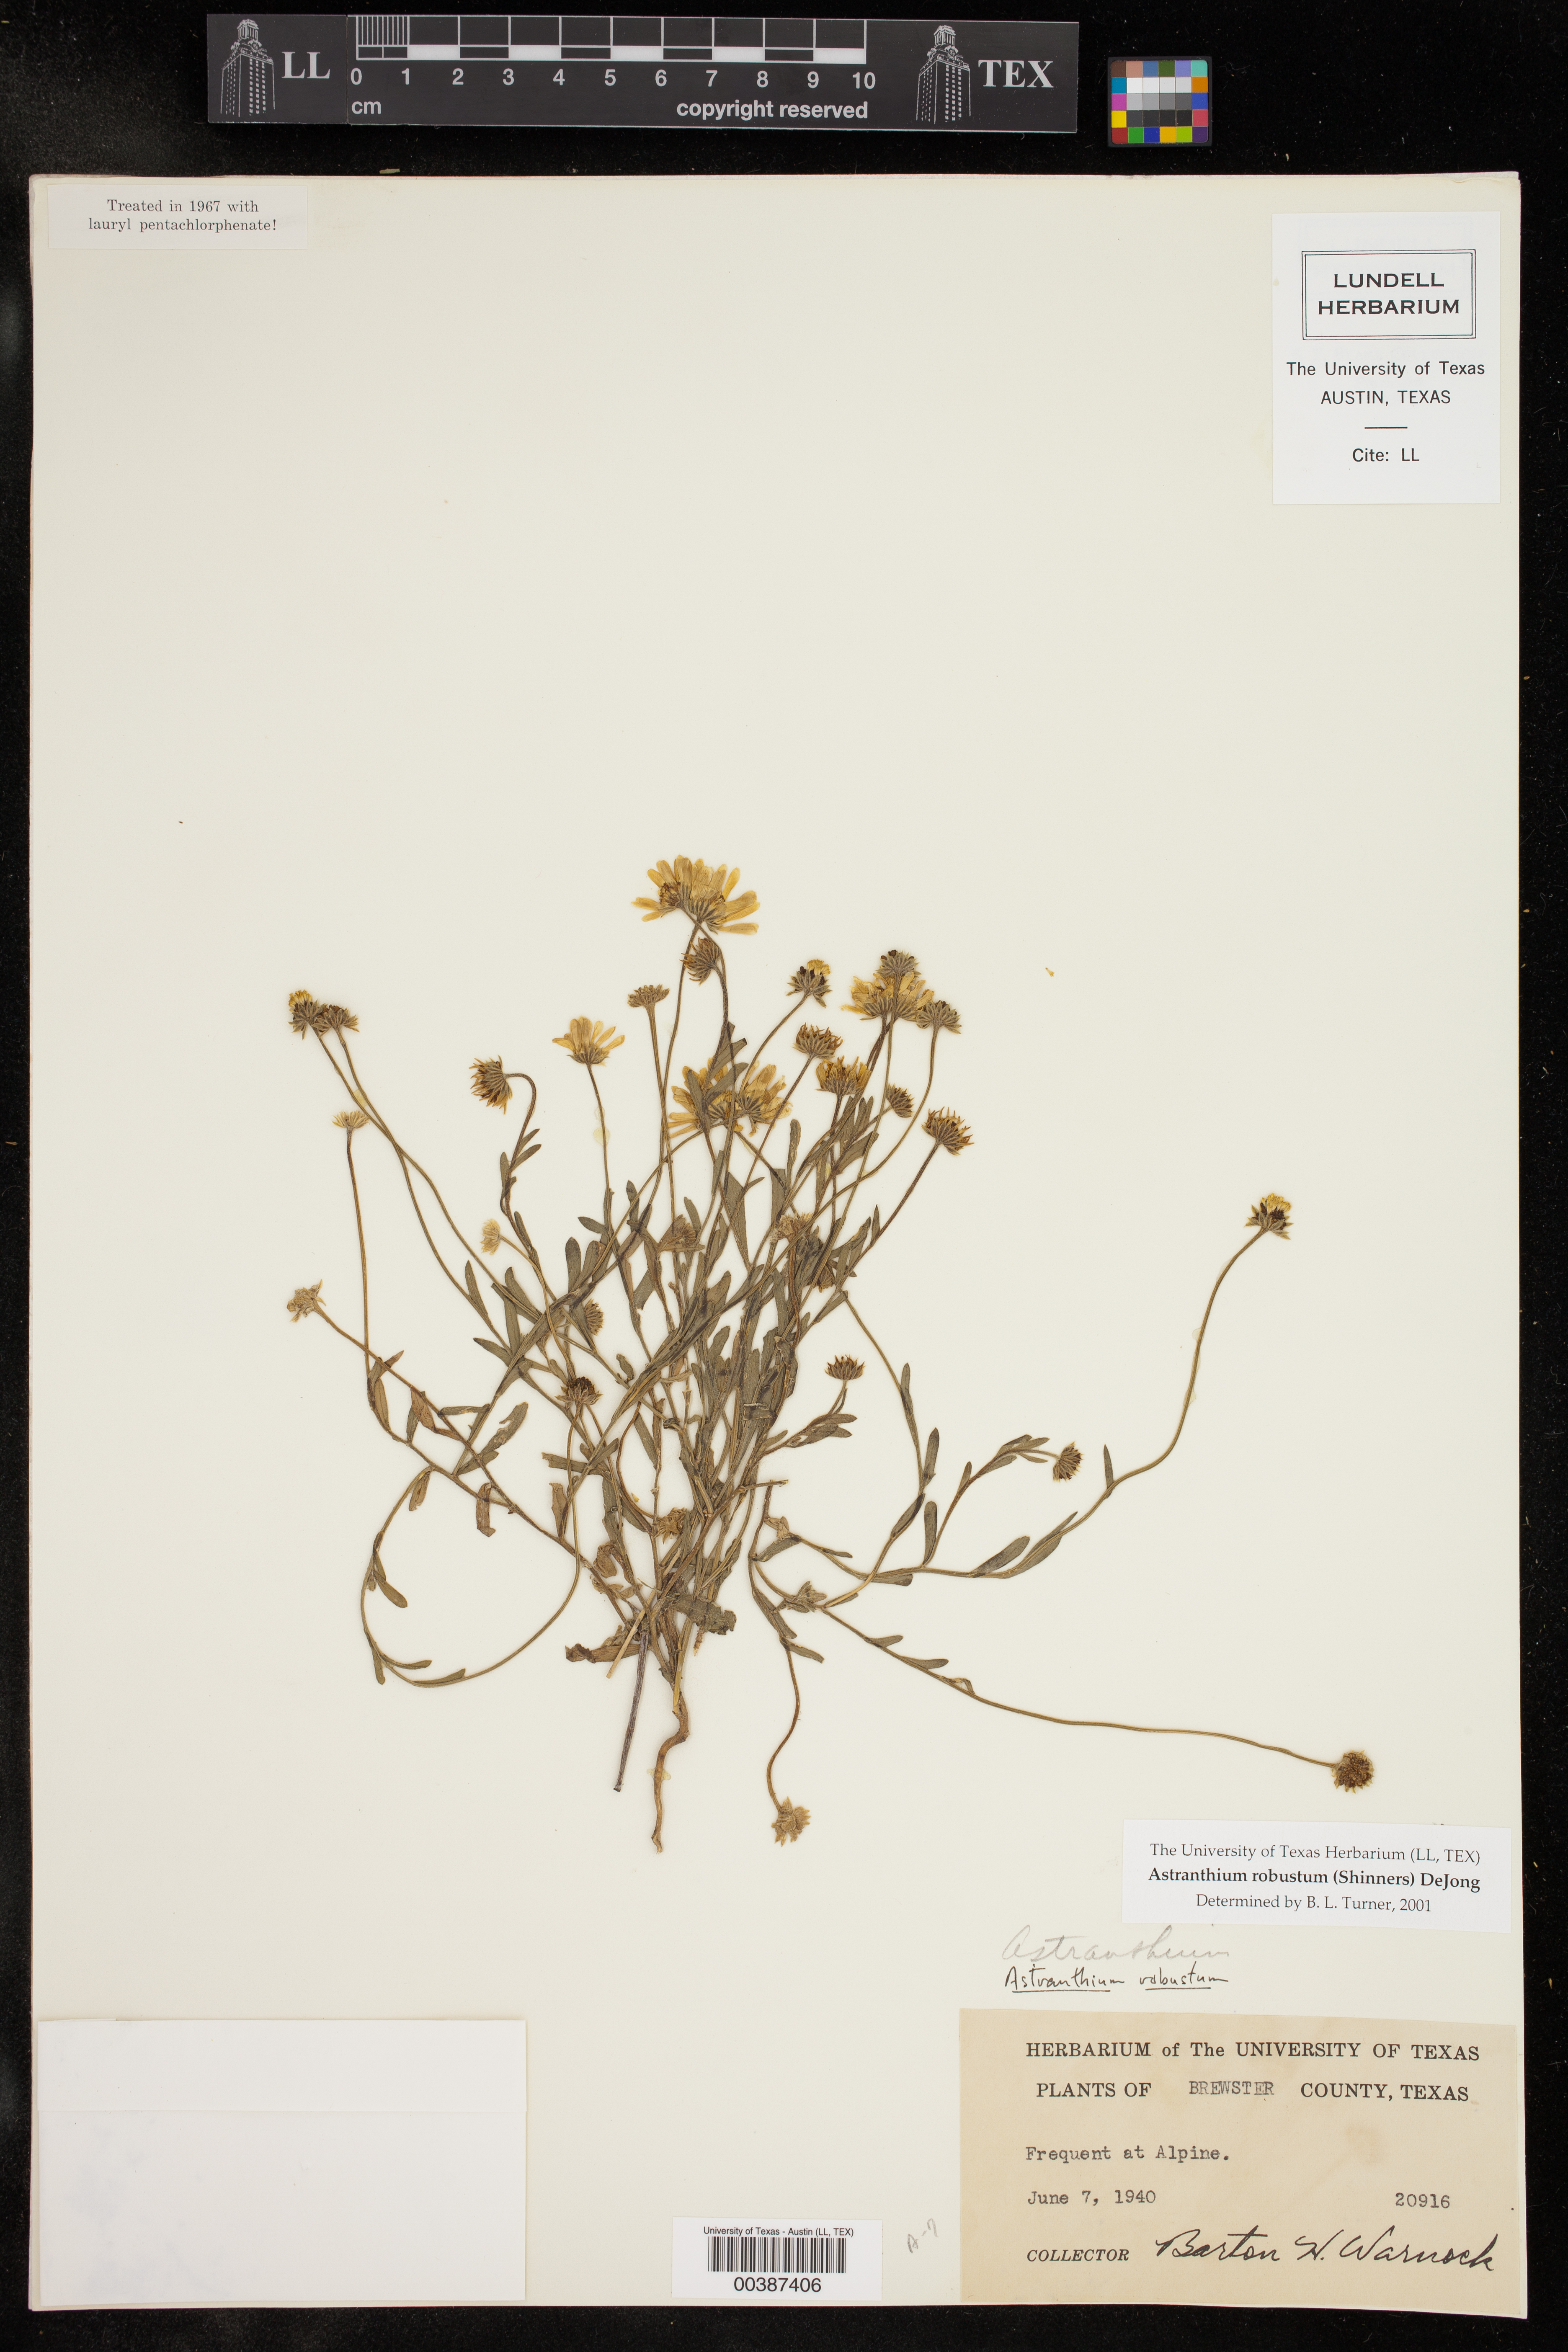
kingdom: Plantae
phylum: Tracheophyta
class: Magnoliopsida
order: Asterales
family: Asteraceae
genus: Astranthium
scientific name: Astranthium robustum
